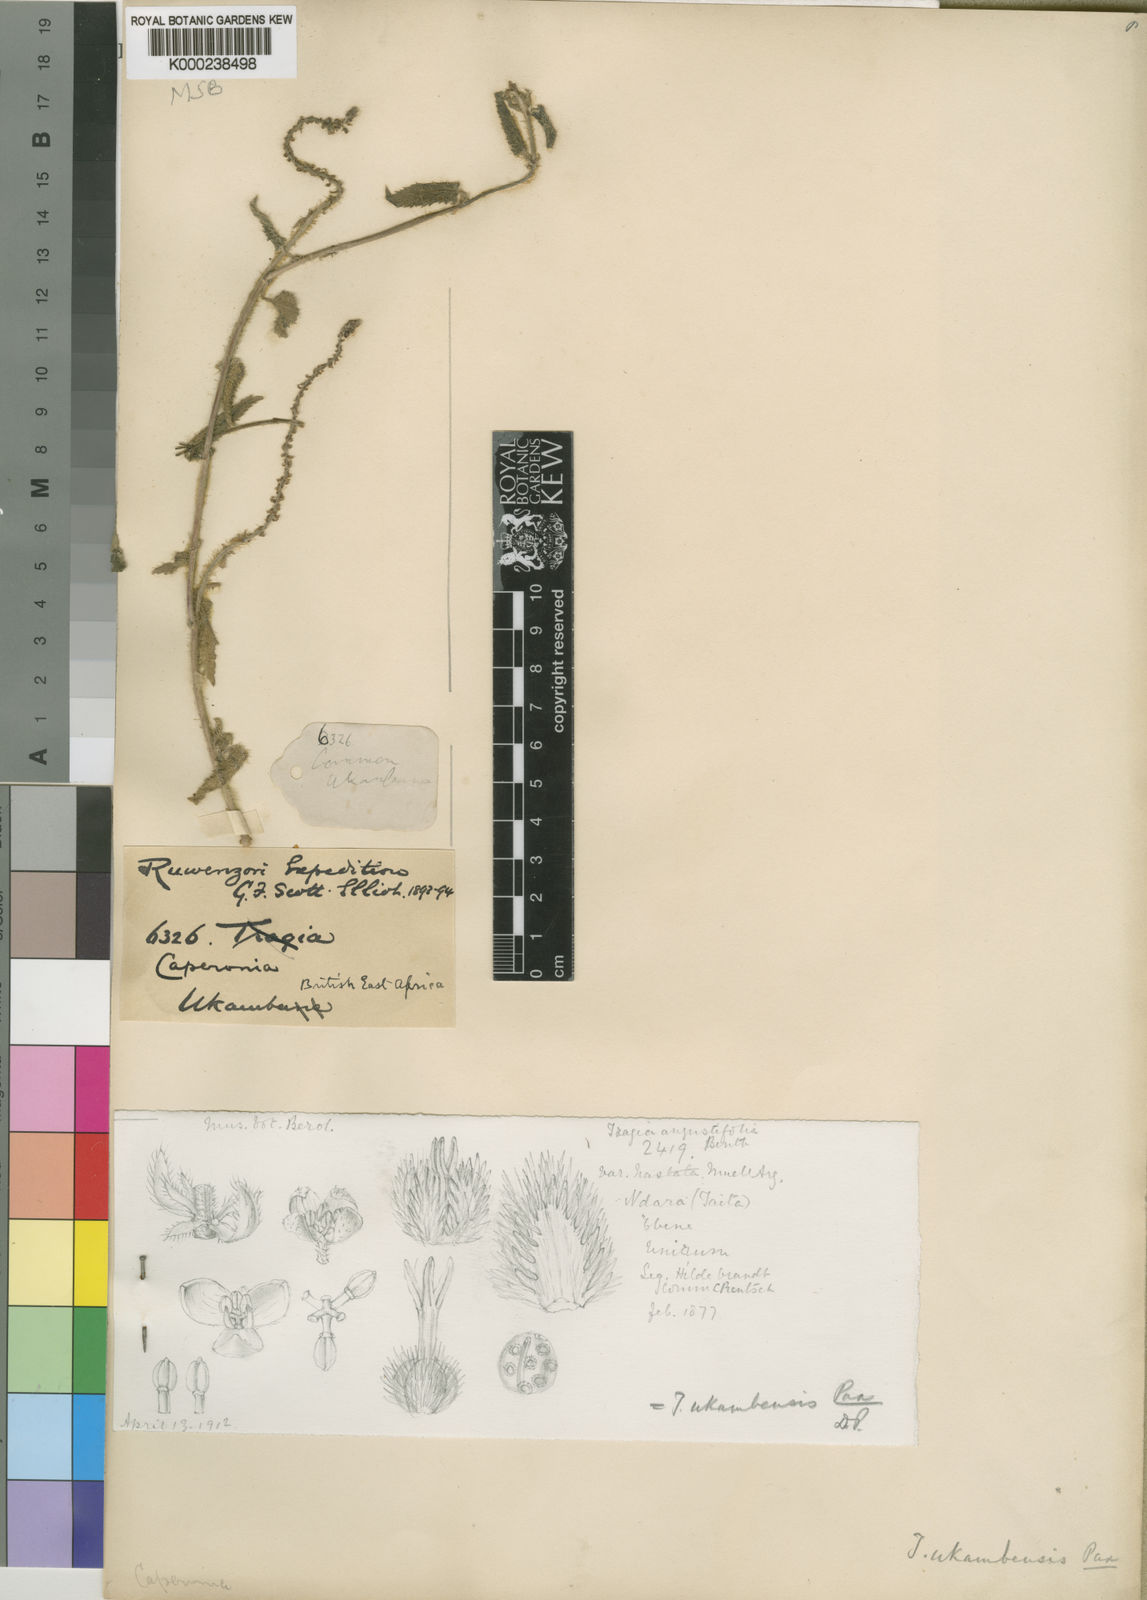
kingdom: Plantae
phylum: Tracheophyta
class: Magnoliopsida
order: Malpighiales
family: Euphorbiaceae
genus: Tragia
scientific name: Tragia ukambensis
